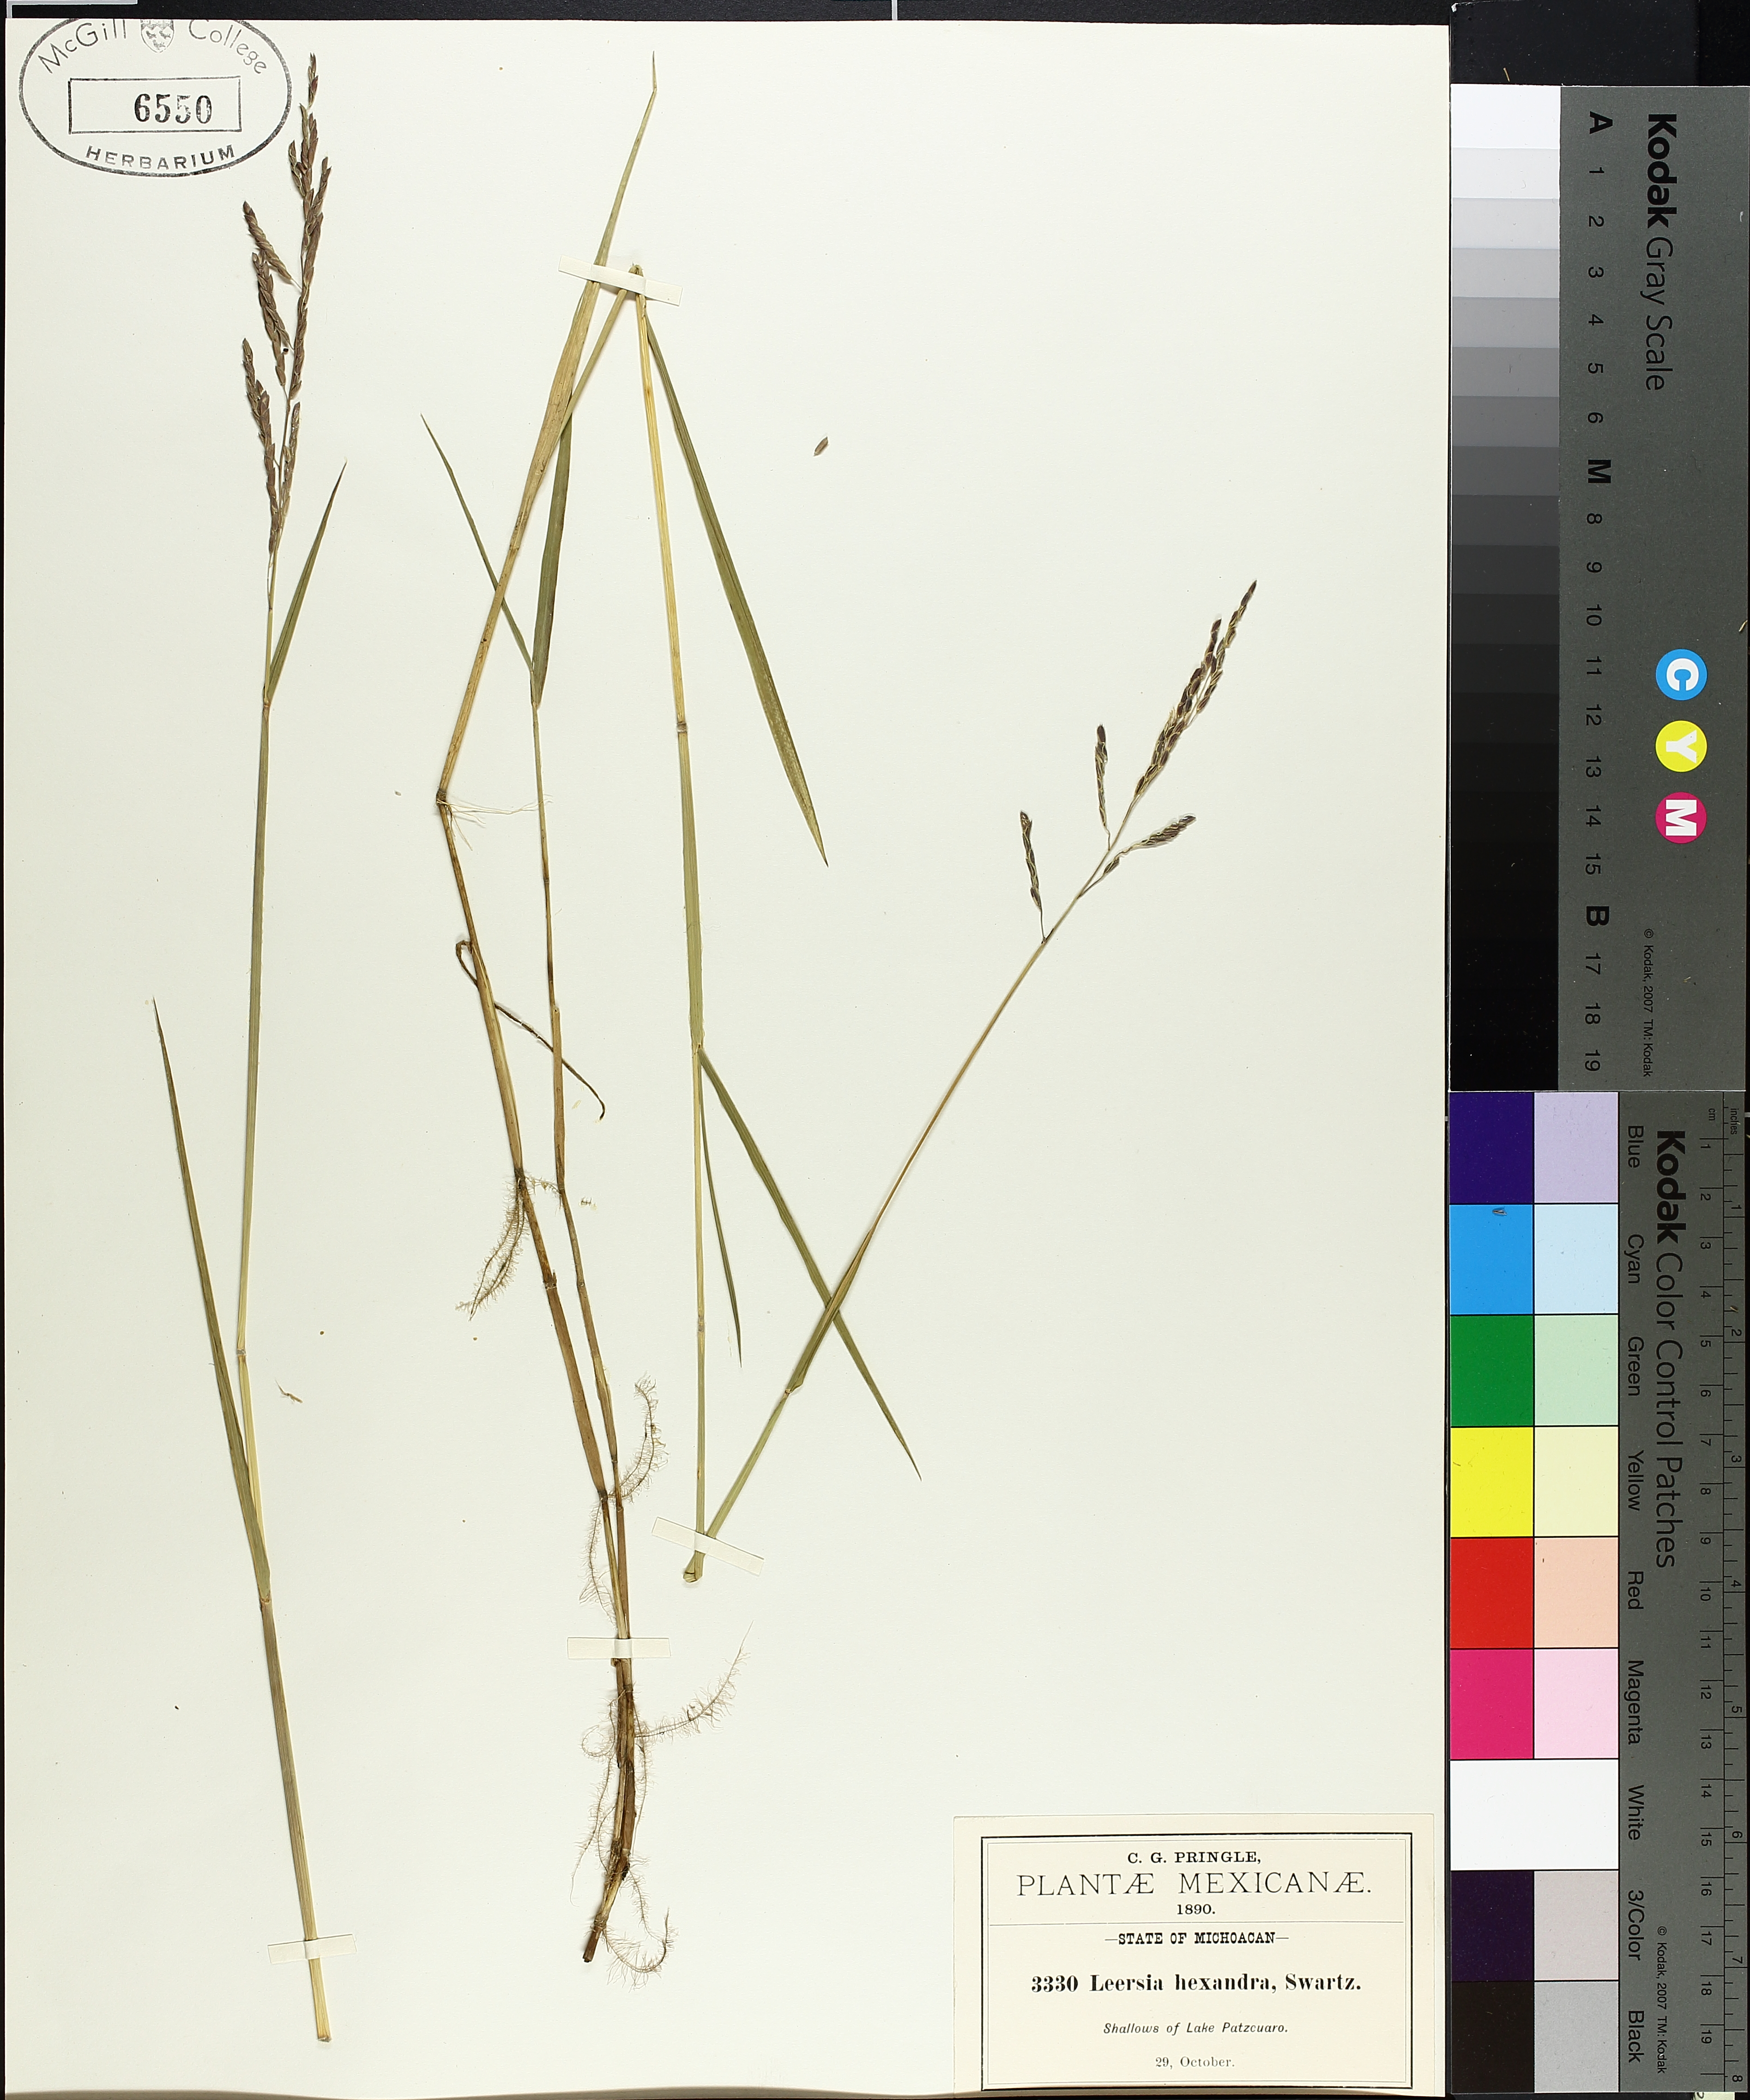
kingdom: Plantae
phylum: Tracheophyta
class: Magnoliopsida
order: Saxifragales
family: Grossulariaceae
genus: Ribes
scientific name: Ribes triste
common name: Swamp red currant
